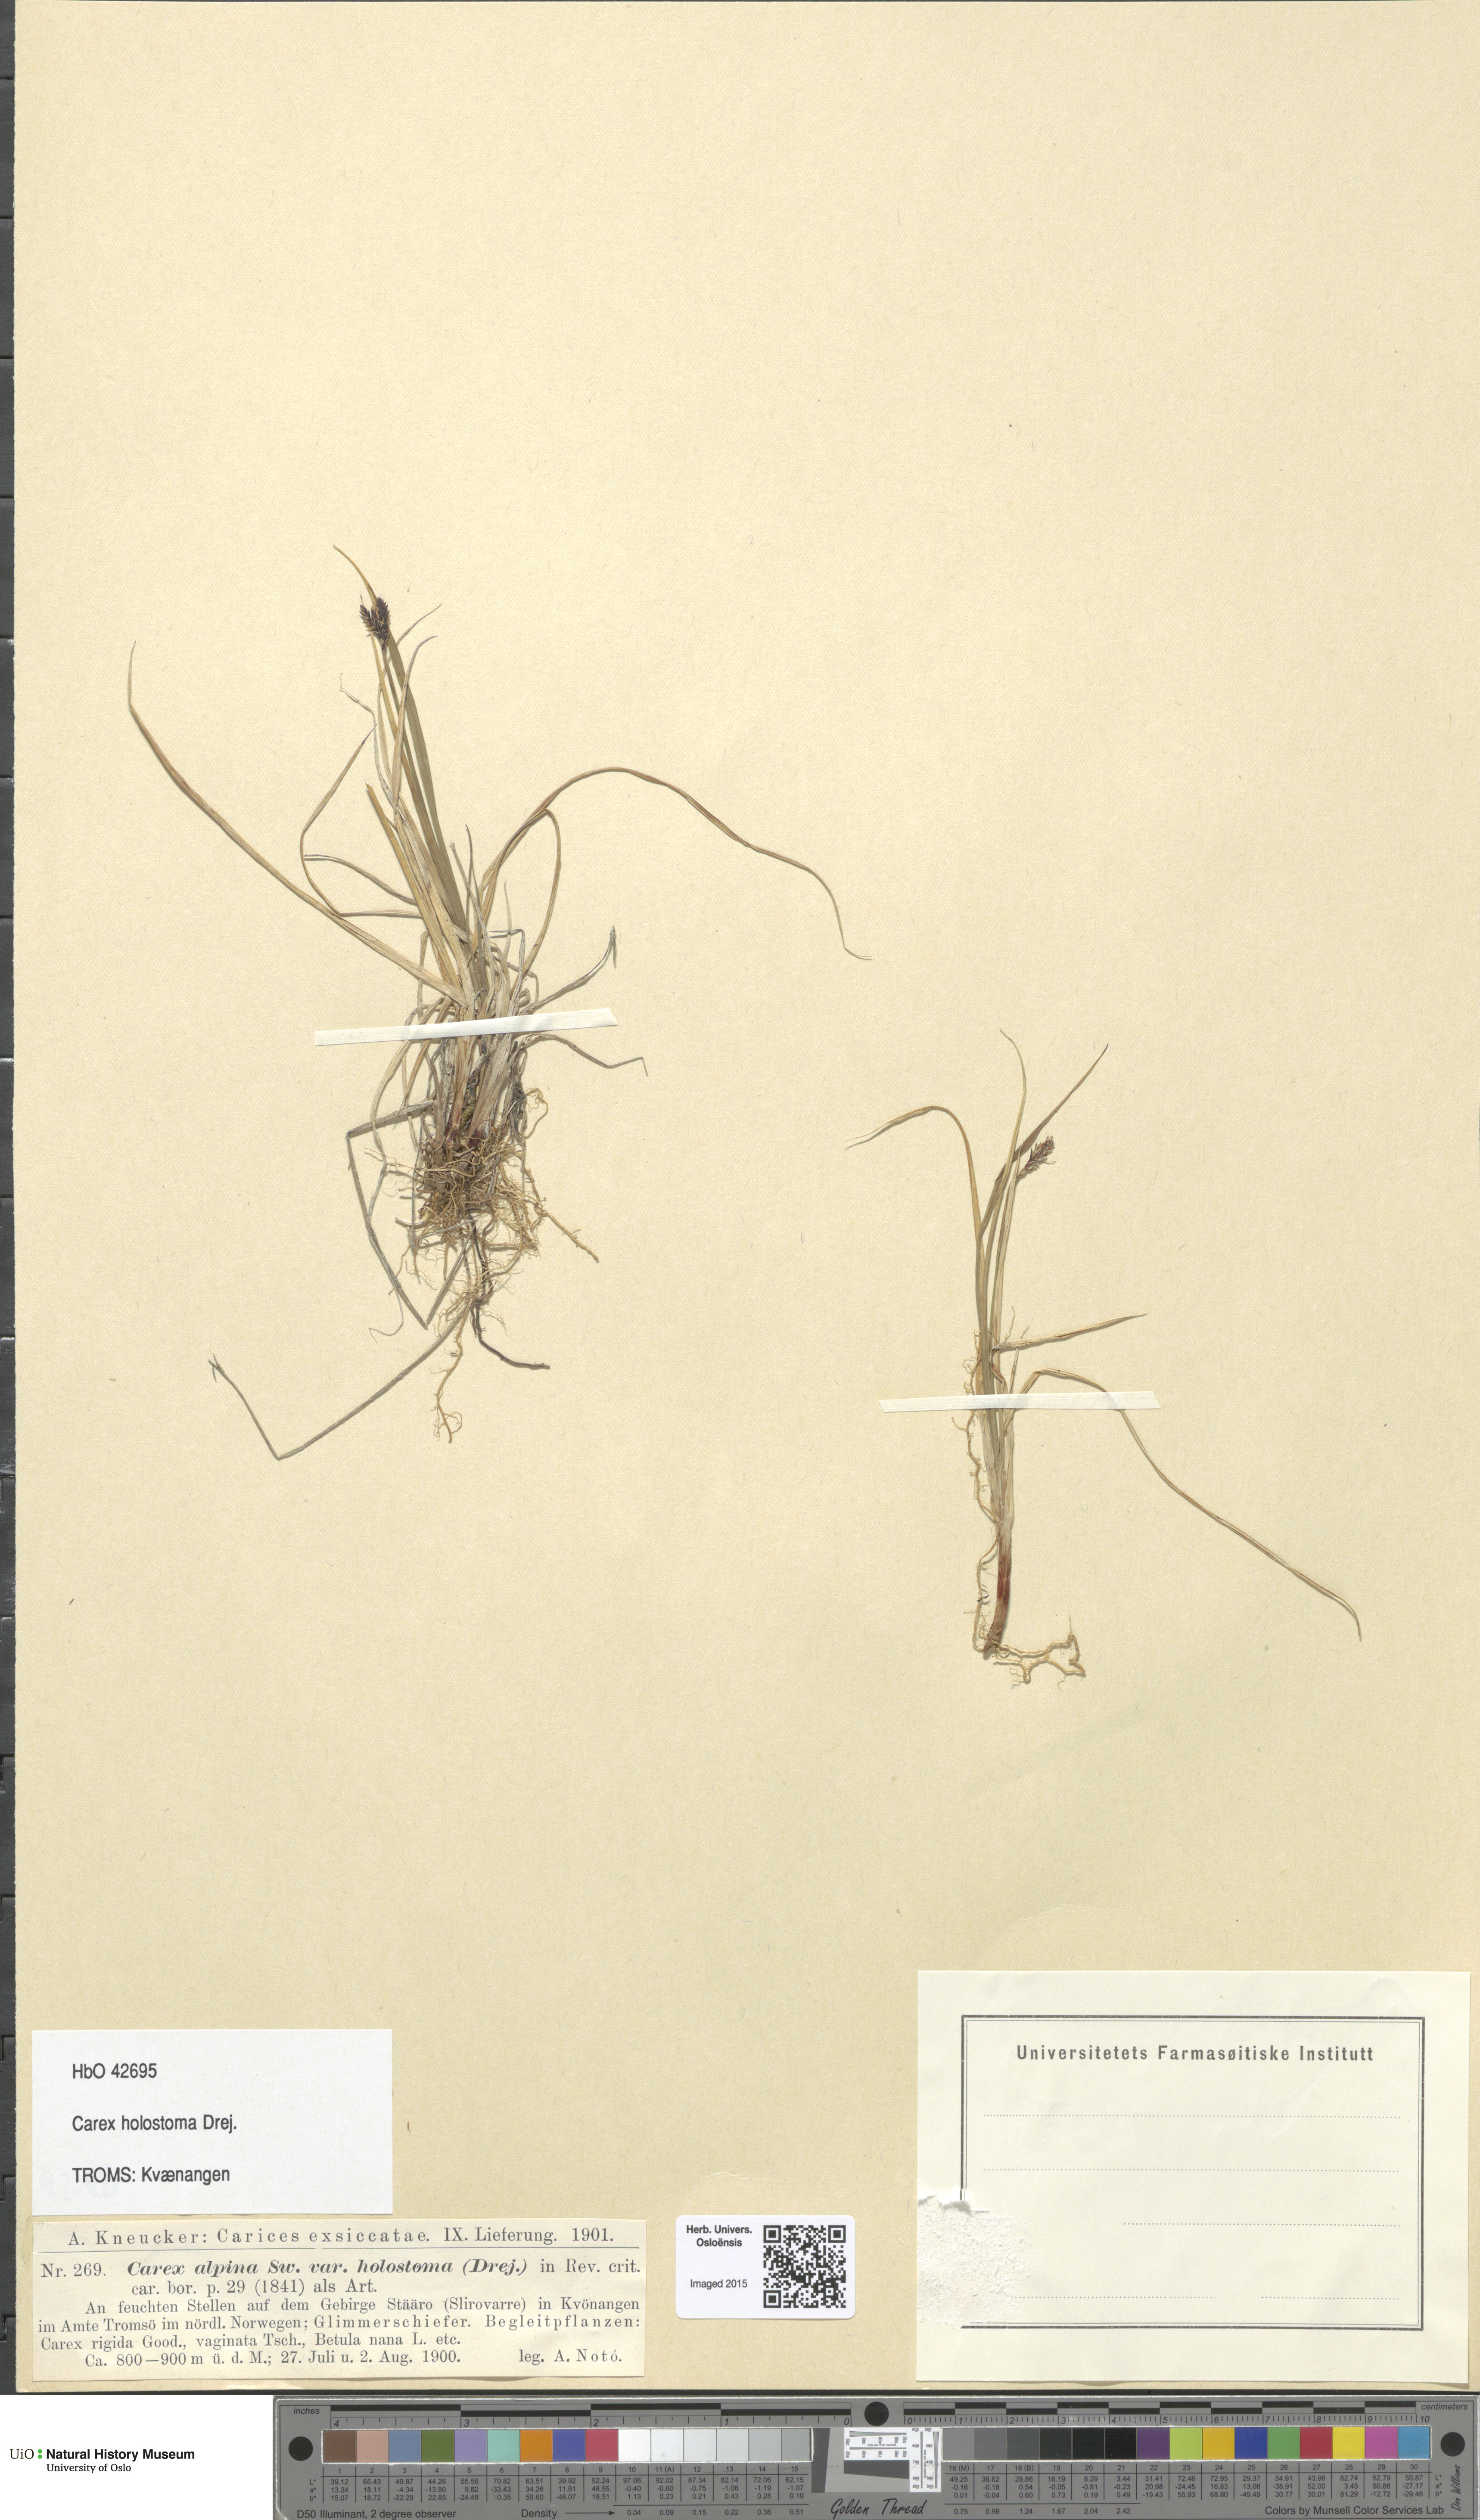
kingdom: Plantae
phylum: Tracheophyta
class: Liliopsida
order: Poales
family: Cyperaceae
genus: Carex
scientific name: Carex holostoma
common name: Arctic marsh sedge
